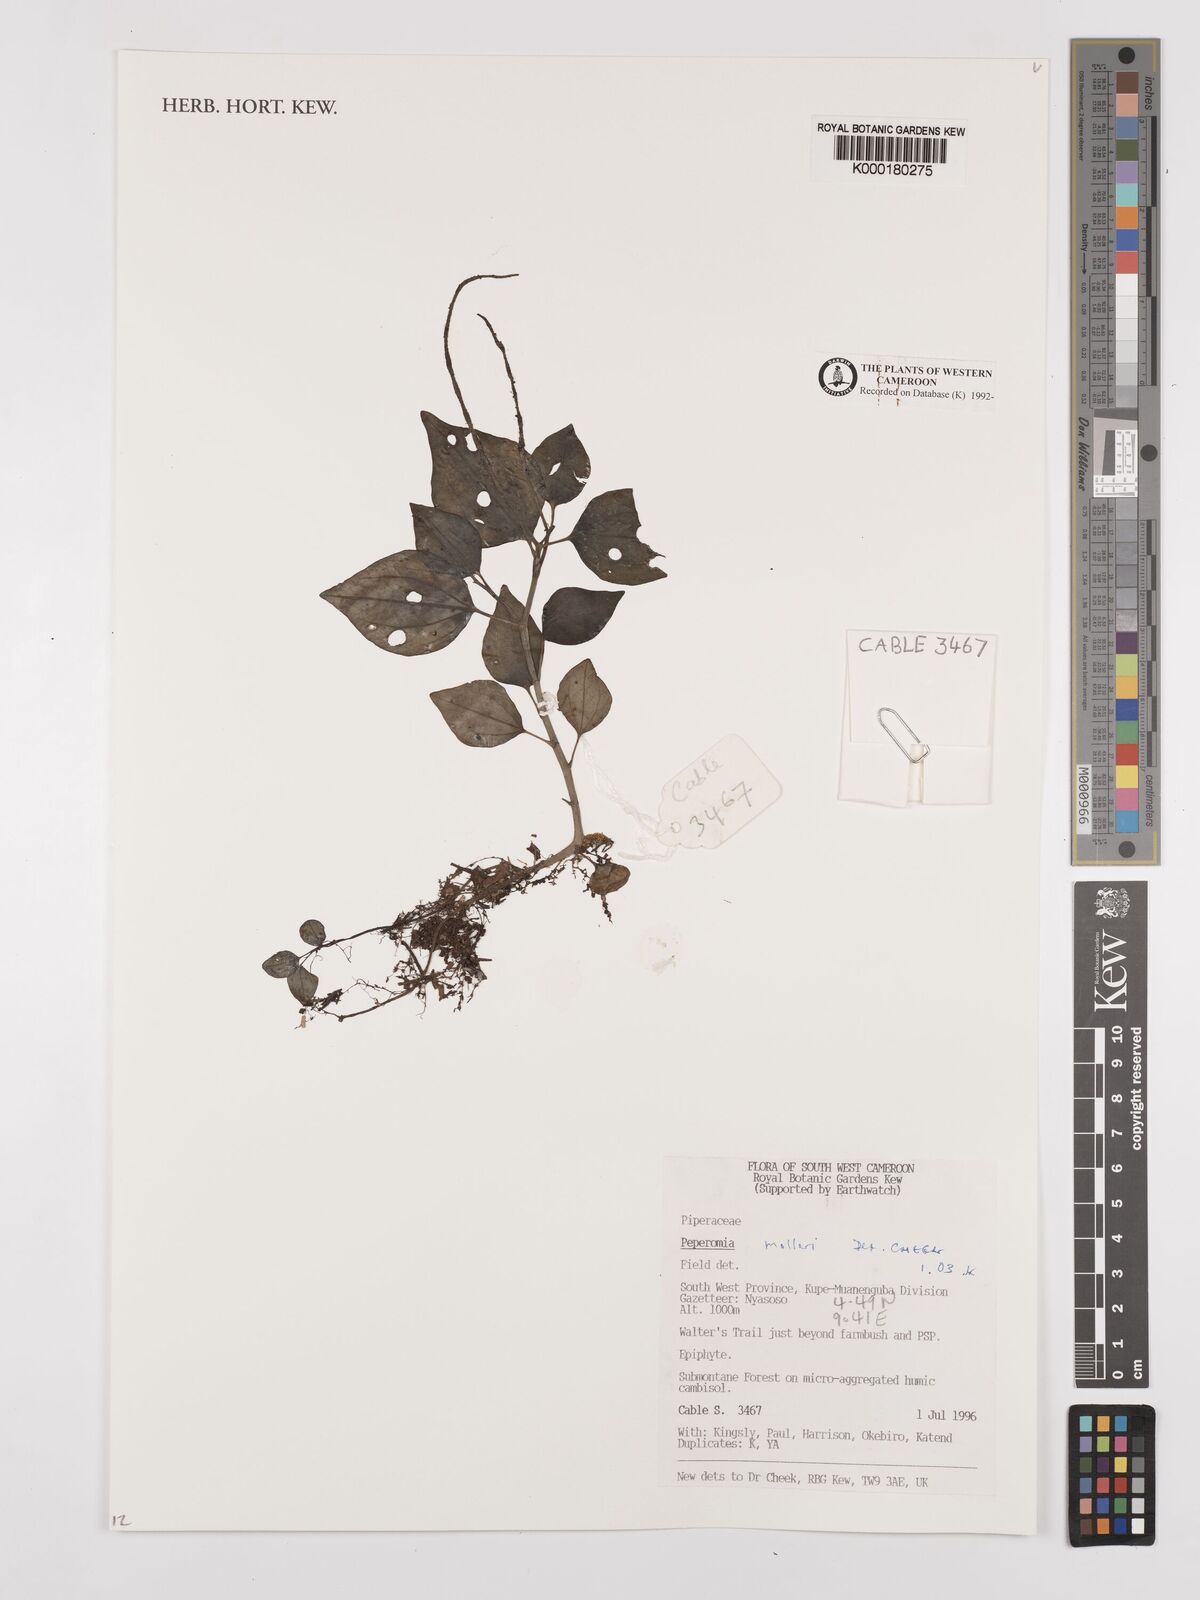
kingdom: Plantae
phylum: Tracheophyta
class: Magnoliopsida
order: Piperales
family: Piperaceae
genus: Peperomia
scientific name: Peperomia molleri
